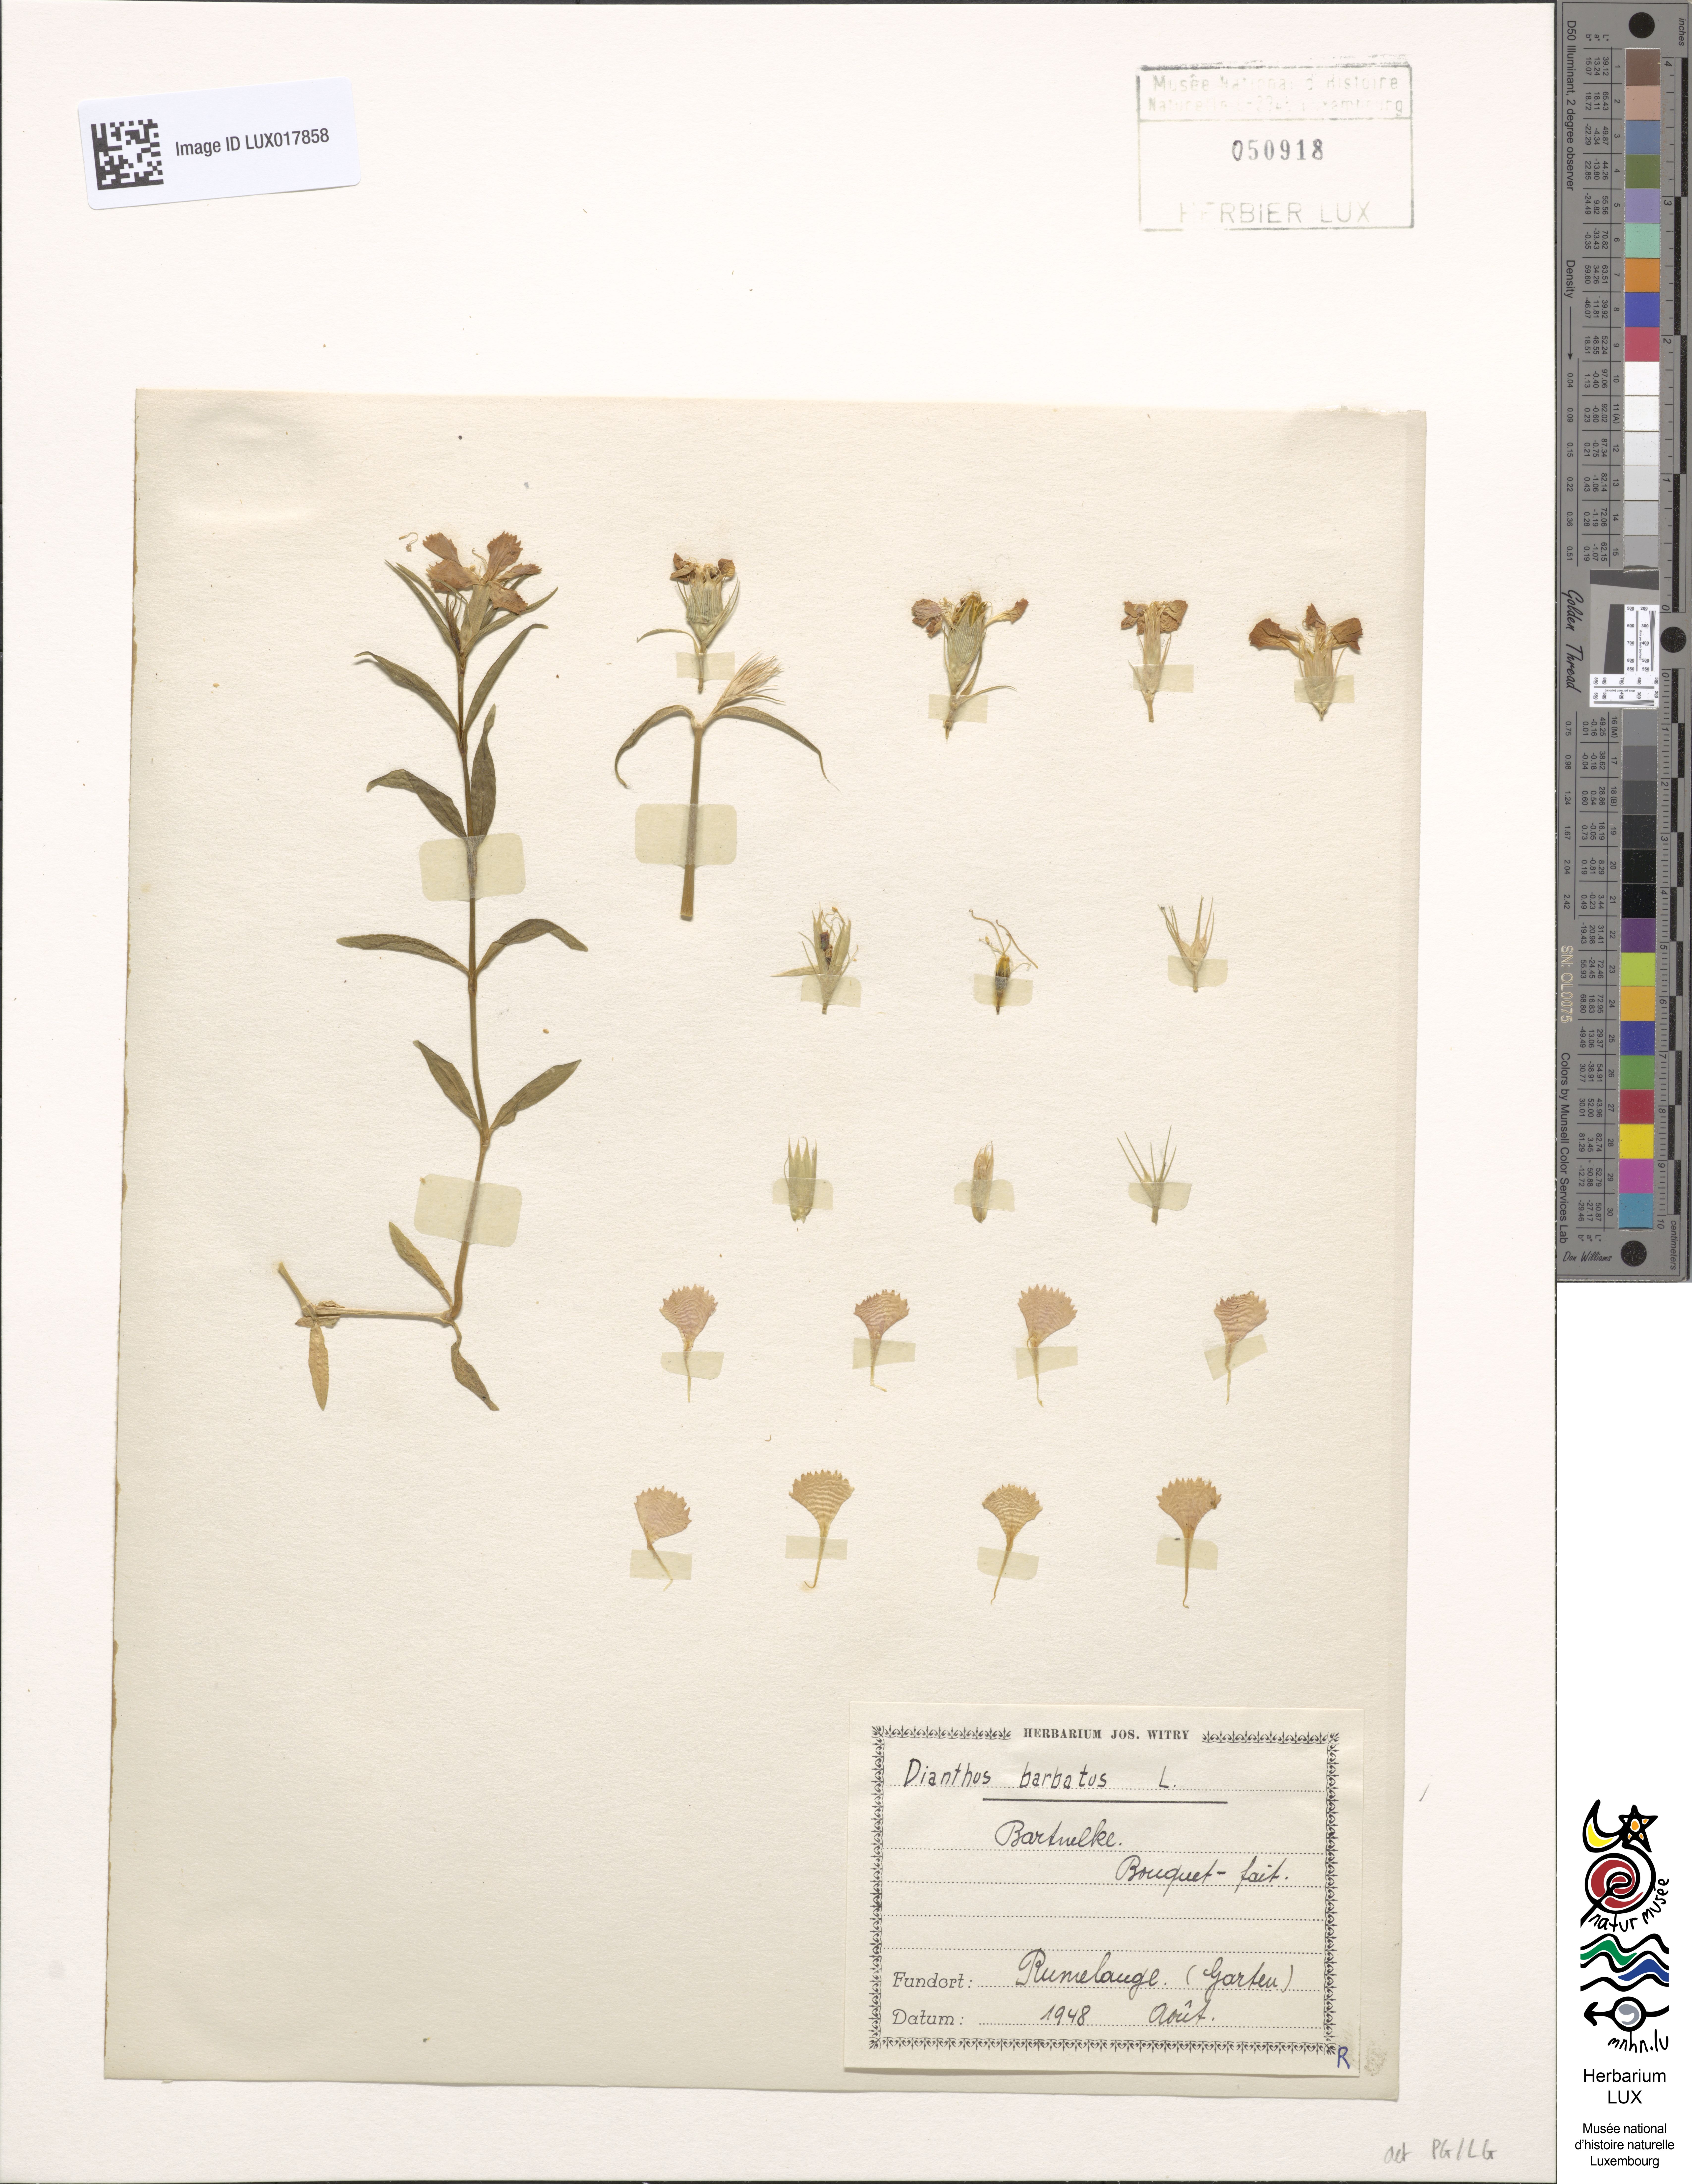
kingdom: Plantae
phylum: Tracheophyta
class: Magnoliopsida
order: Caryophyllales
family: Caryophyllaceae
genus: Dianthus
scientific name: Dianthus barbatus
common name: Sweet-william
